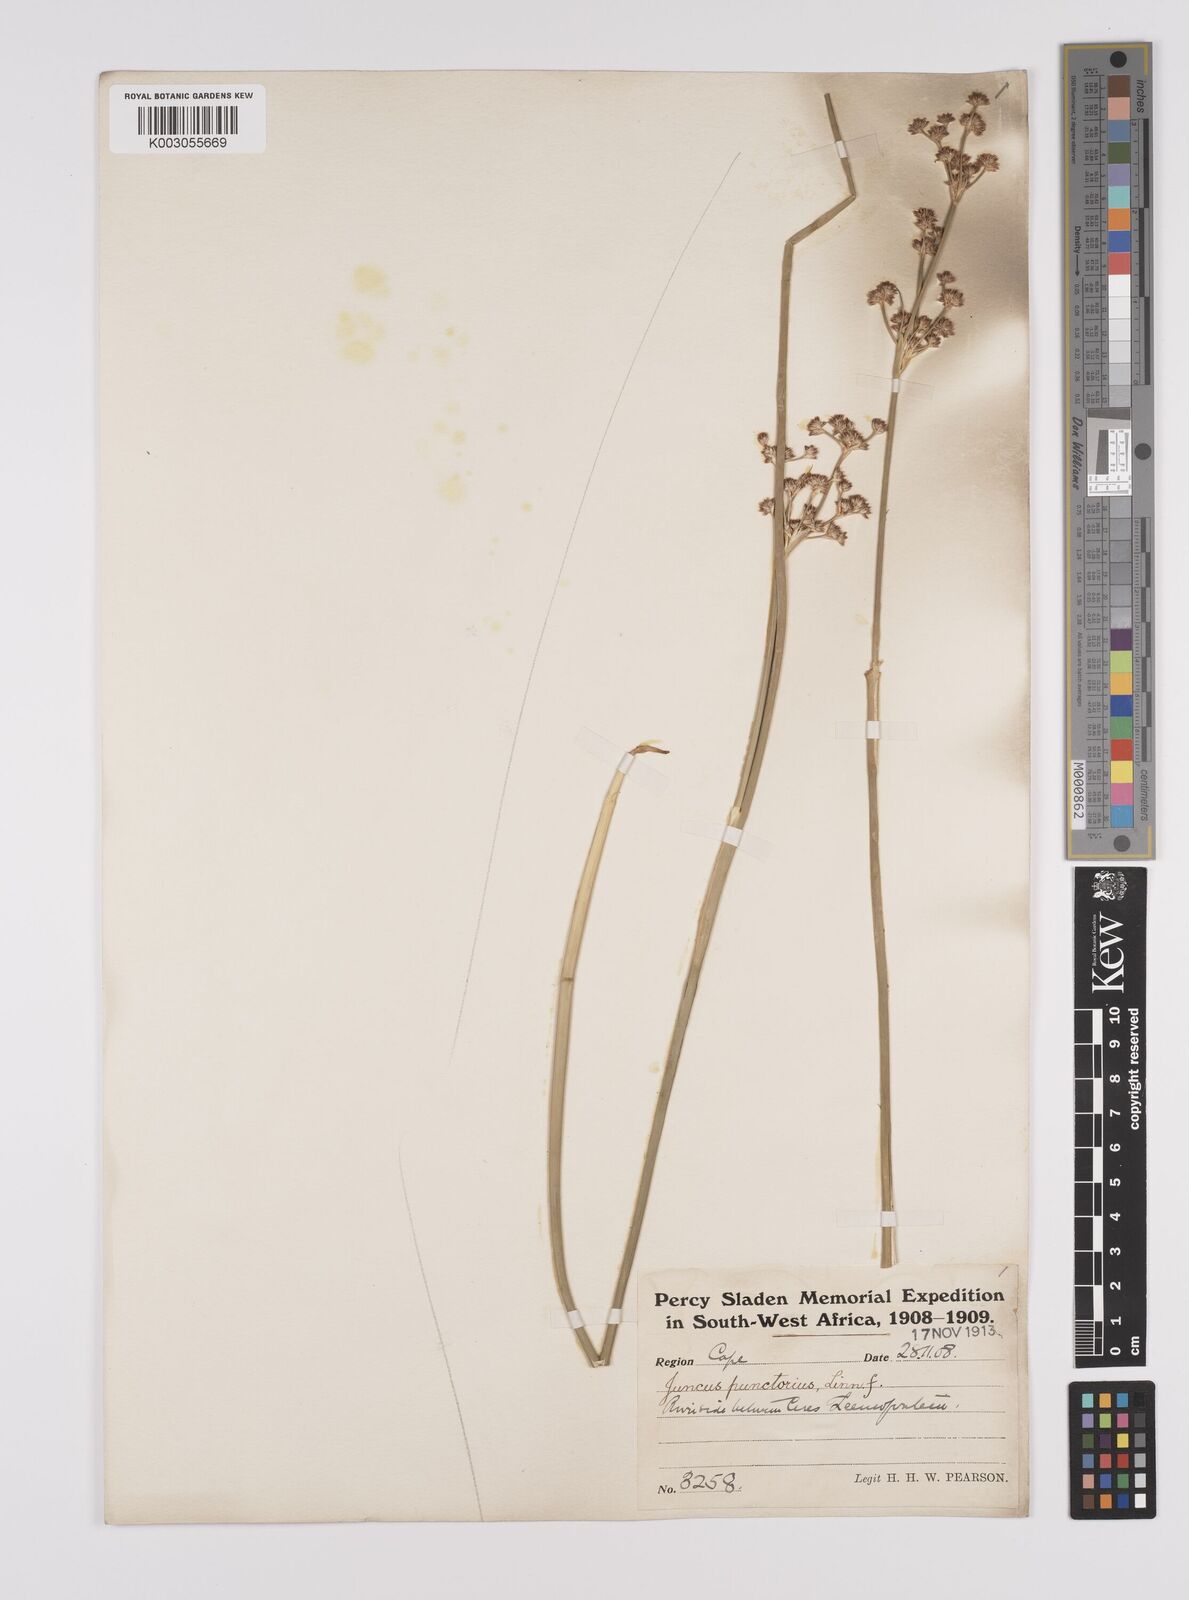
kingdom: Plantae
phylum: Tracheophyta
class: Liliopsida
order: Poales
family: Juncaceae
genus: Juncus
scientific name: Juncus punctorius
